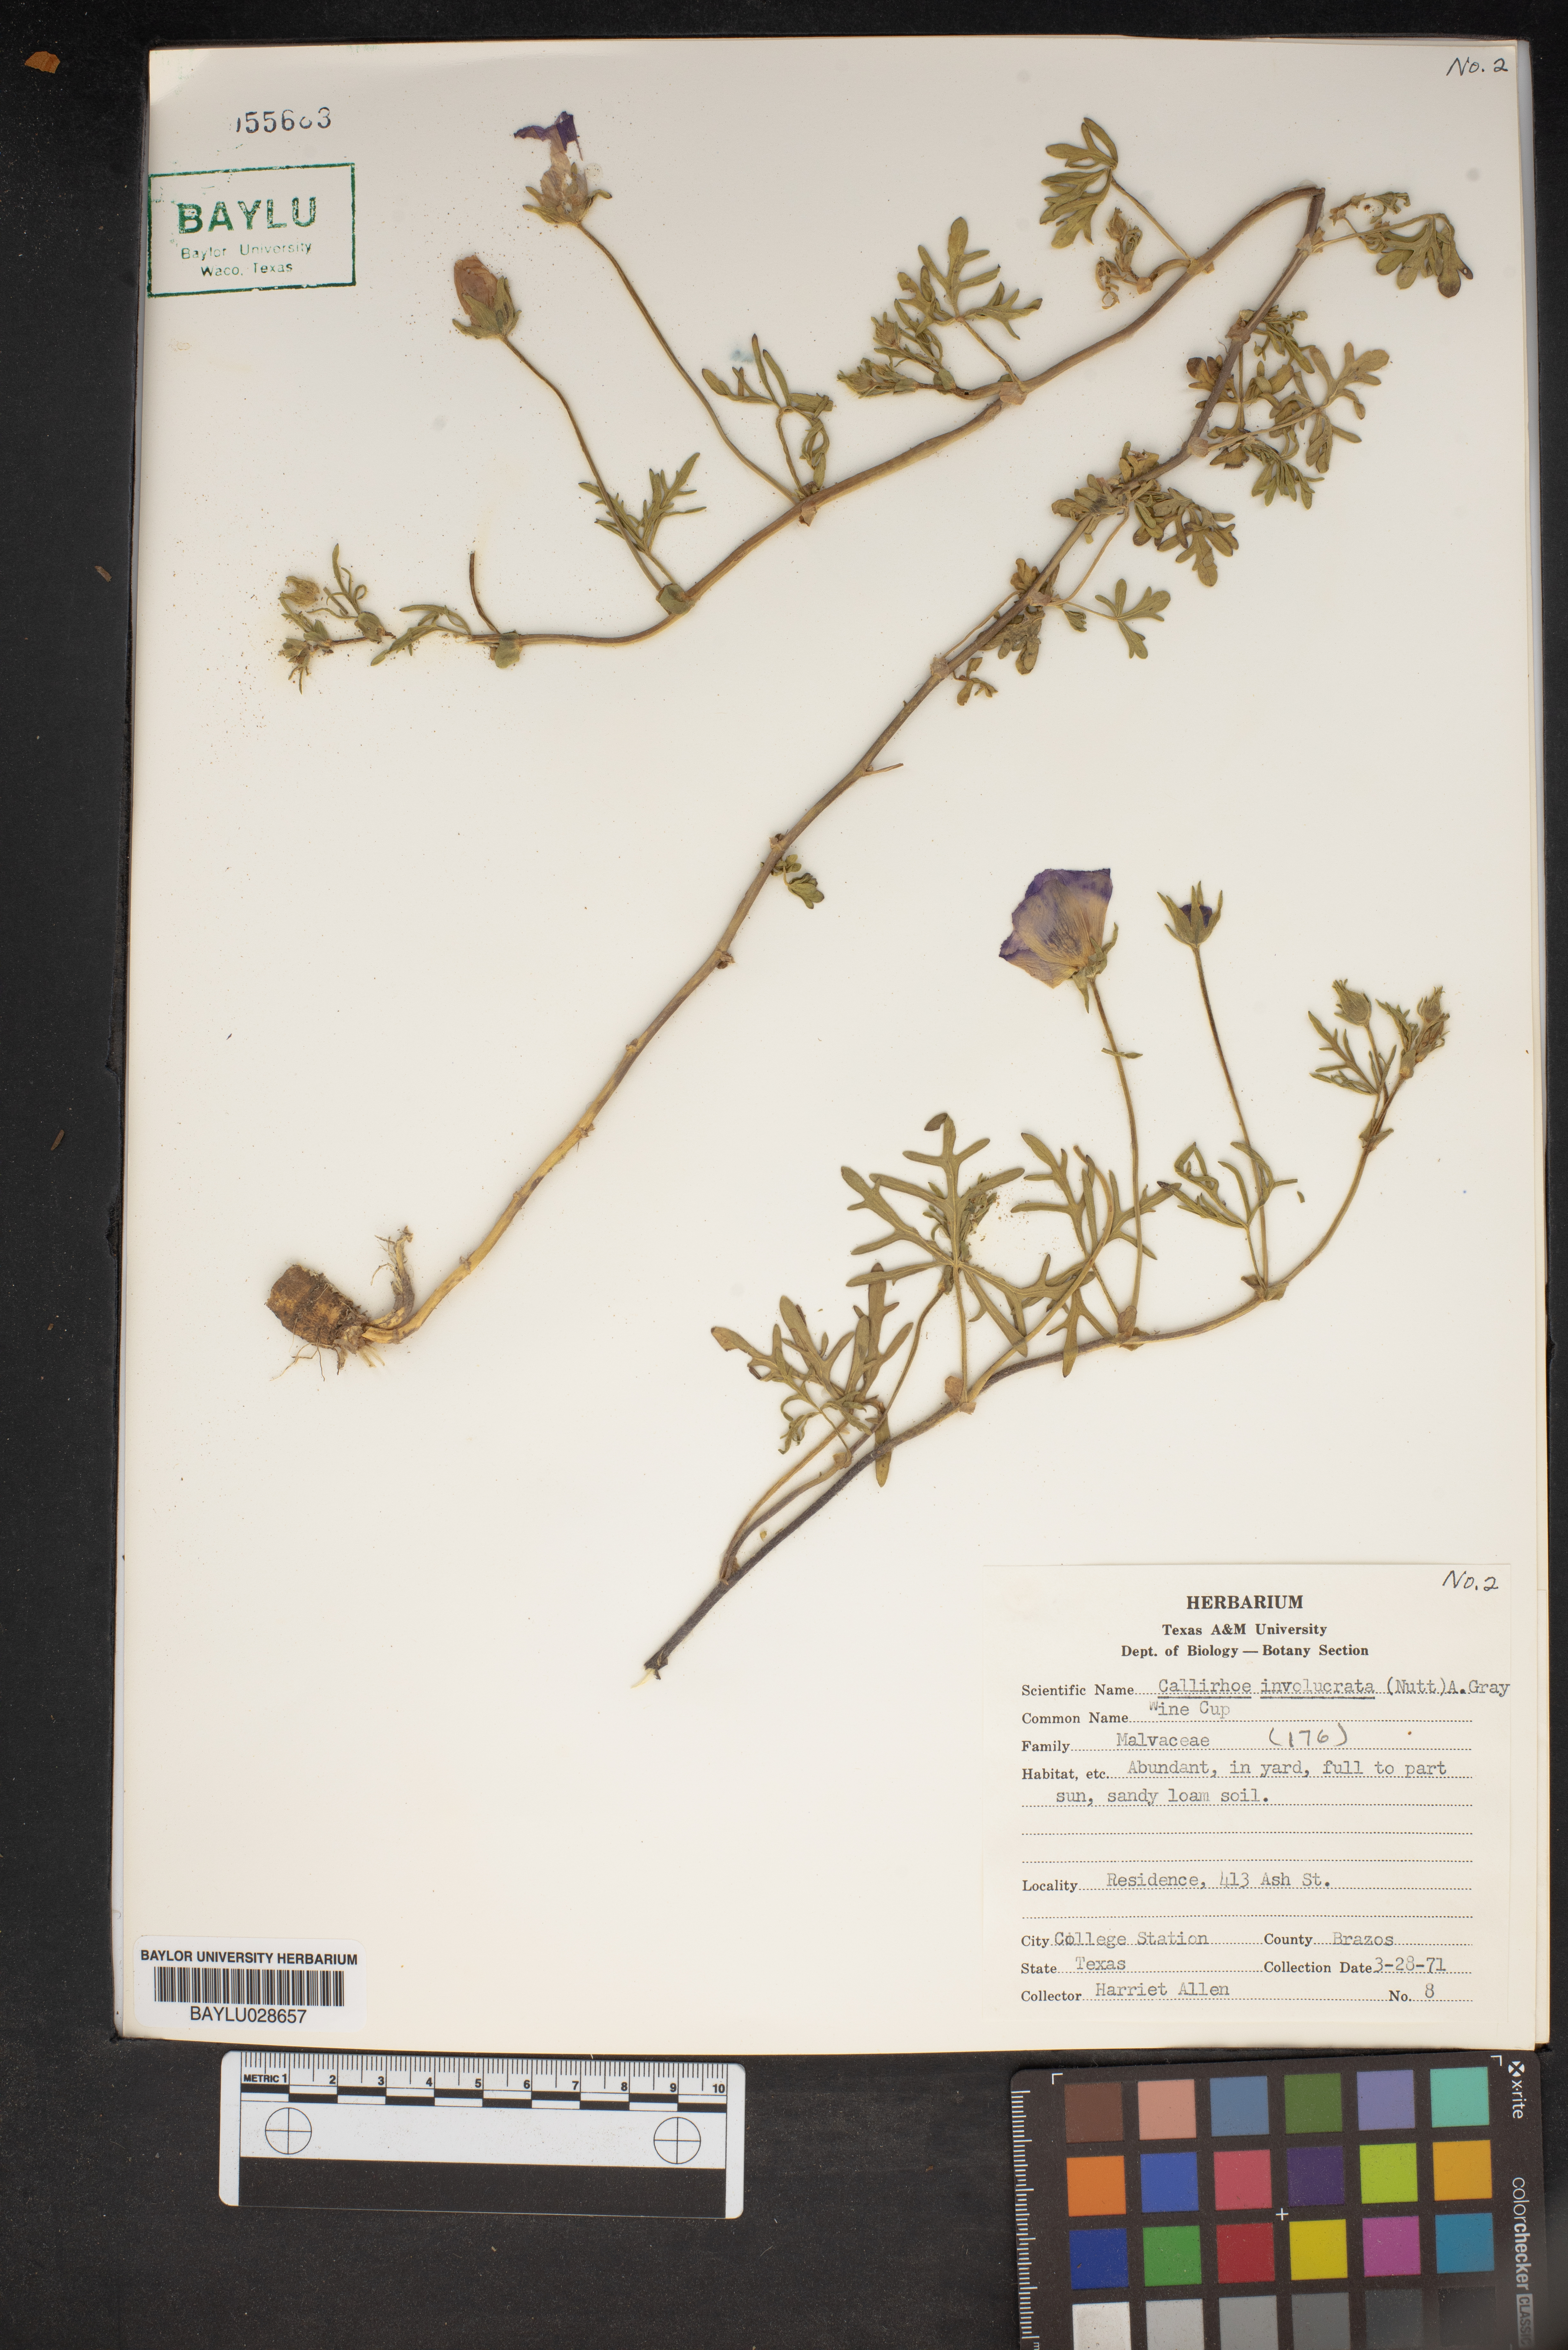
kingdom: Plantae
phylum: Tracheophyta
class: Magnoliopsida
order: Malvales
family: Malvaceae
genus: Callirhoe
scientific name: Callirhoe involucrata
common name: Purple poppy-mallow
